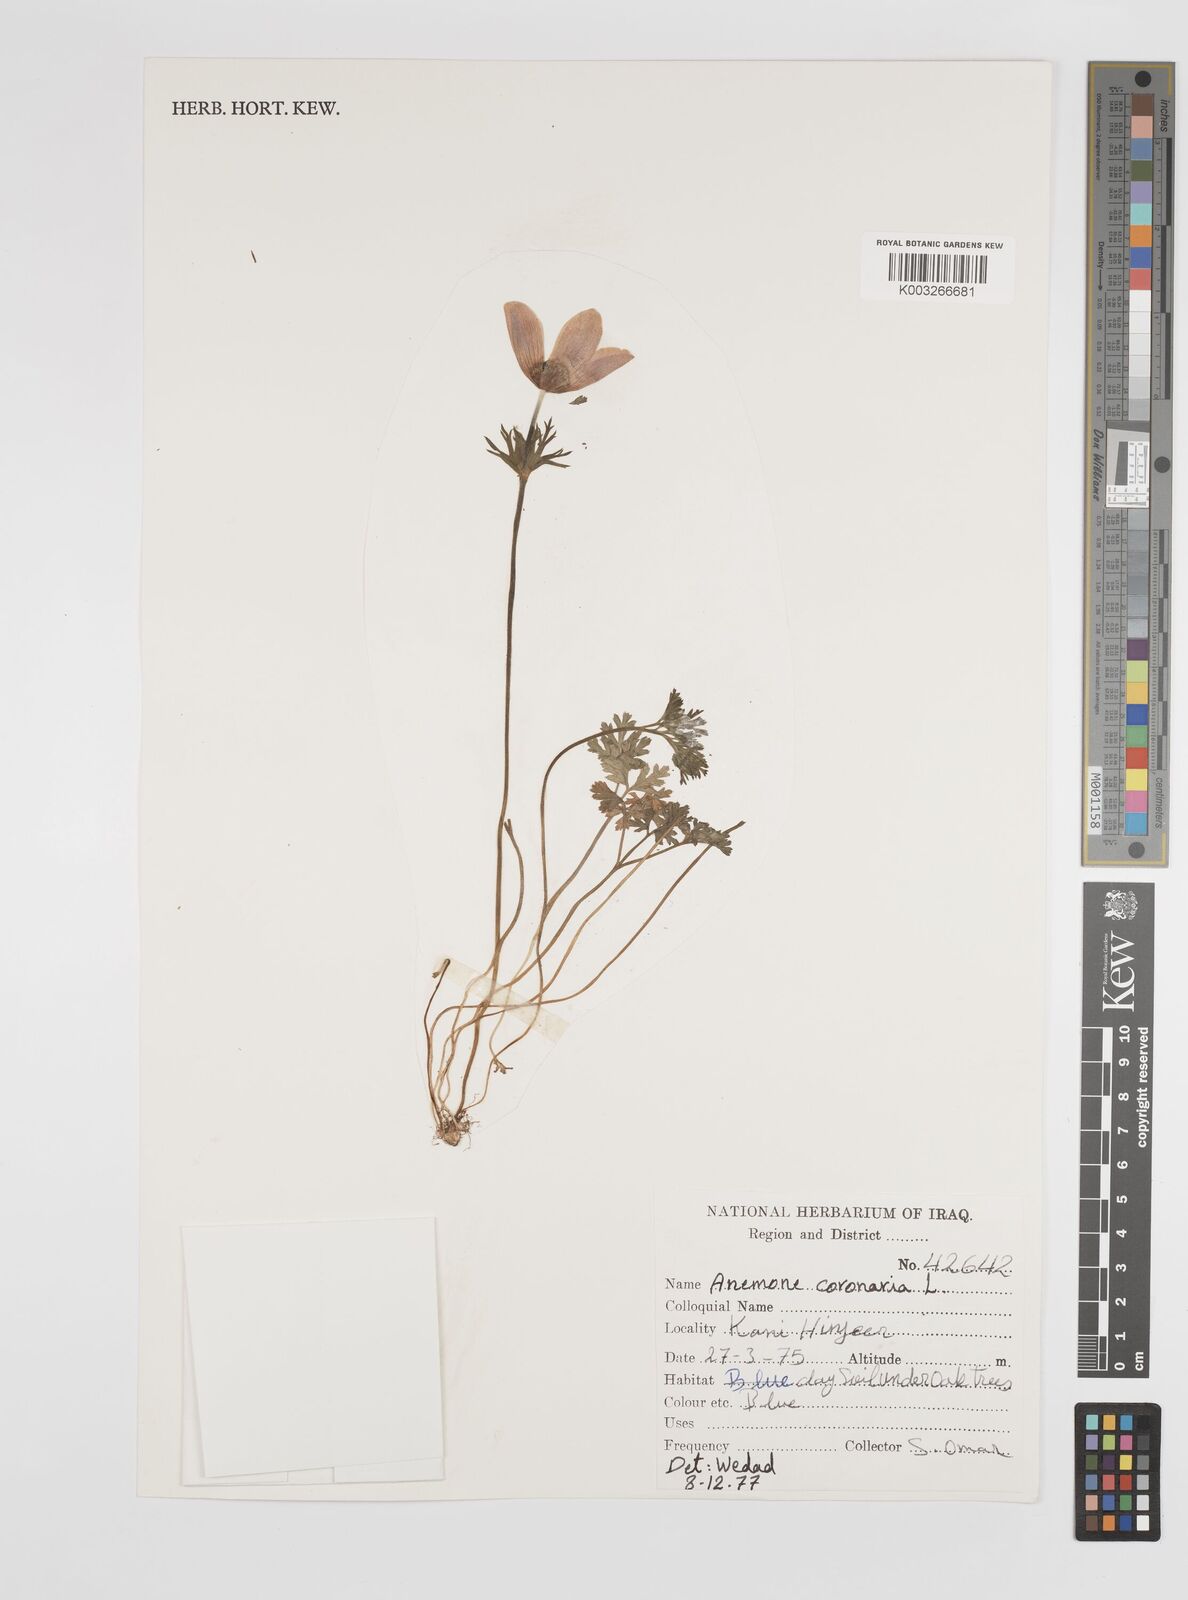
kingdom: Plantae
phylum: Tracheophyta
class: Magnoliopsida
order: Ranunculales
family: Ranunculaceae
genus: Anemone
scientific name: Anemone coronaria
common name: Poppy anemone
